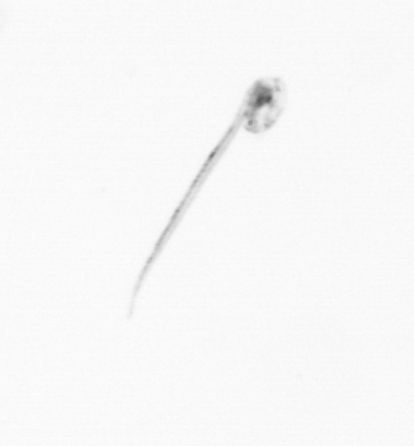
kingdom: Animalia
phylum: Chordata
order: Copelata
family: Fritillariidae
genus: Appendicularia
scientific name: Appendicularia
